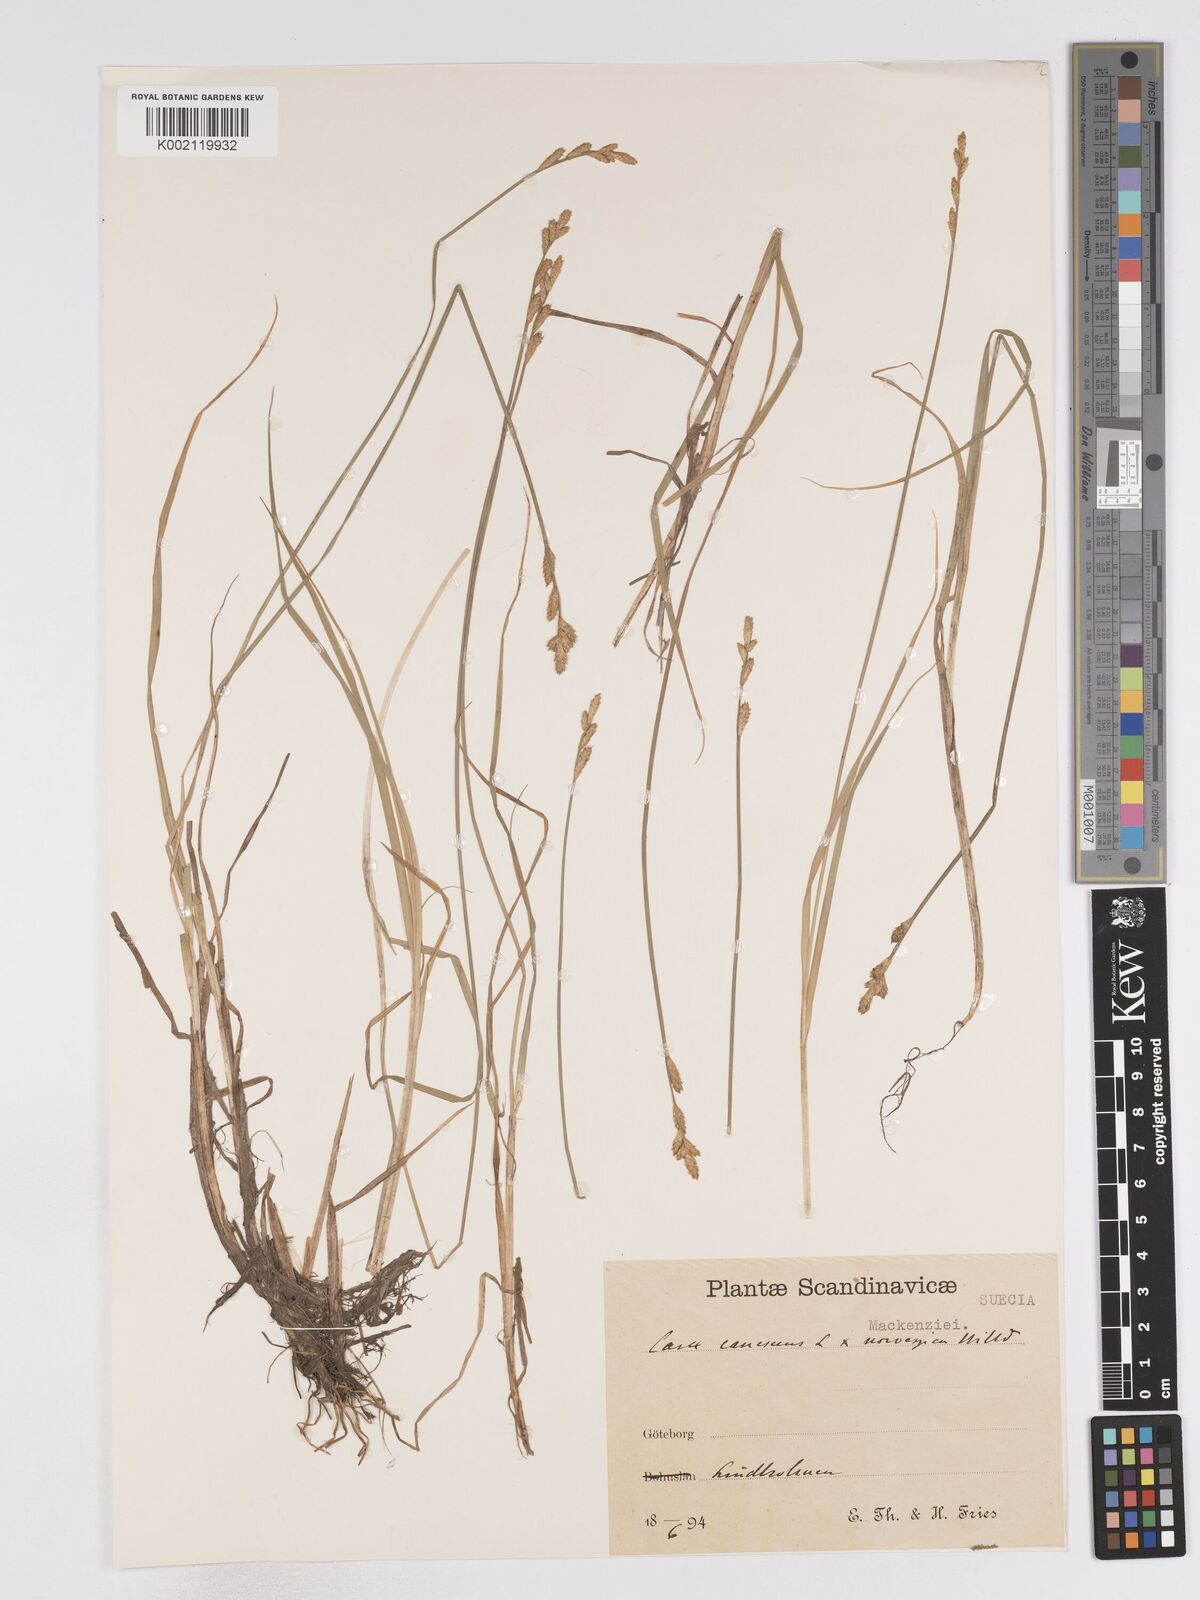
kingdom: Plantae
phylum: Tracheophyta
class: Liliopsida
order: Poales
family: Cyperaceae
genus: Carex
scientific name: Carex curta
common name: White sedge
